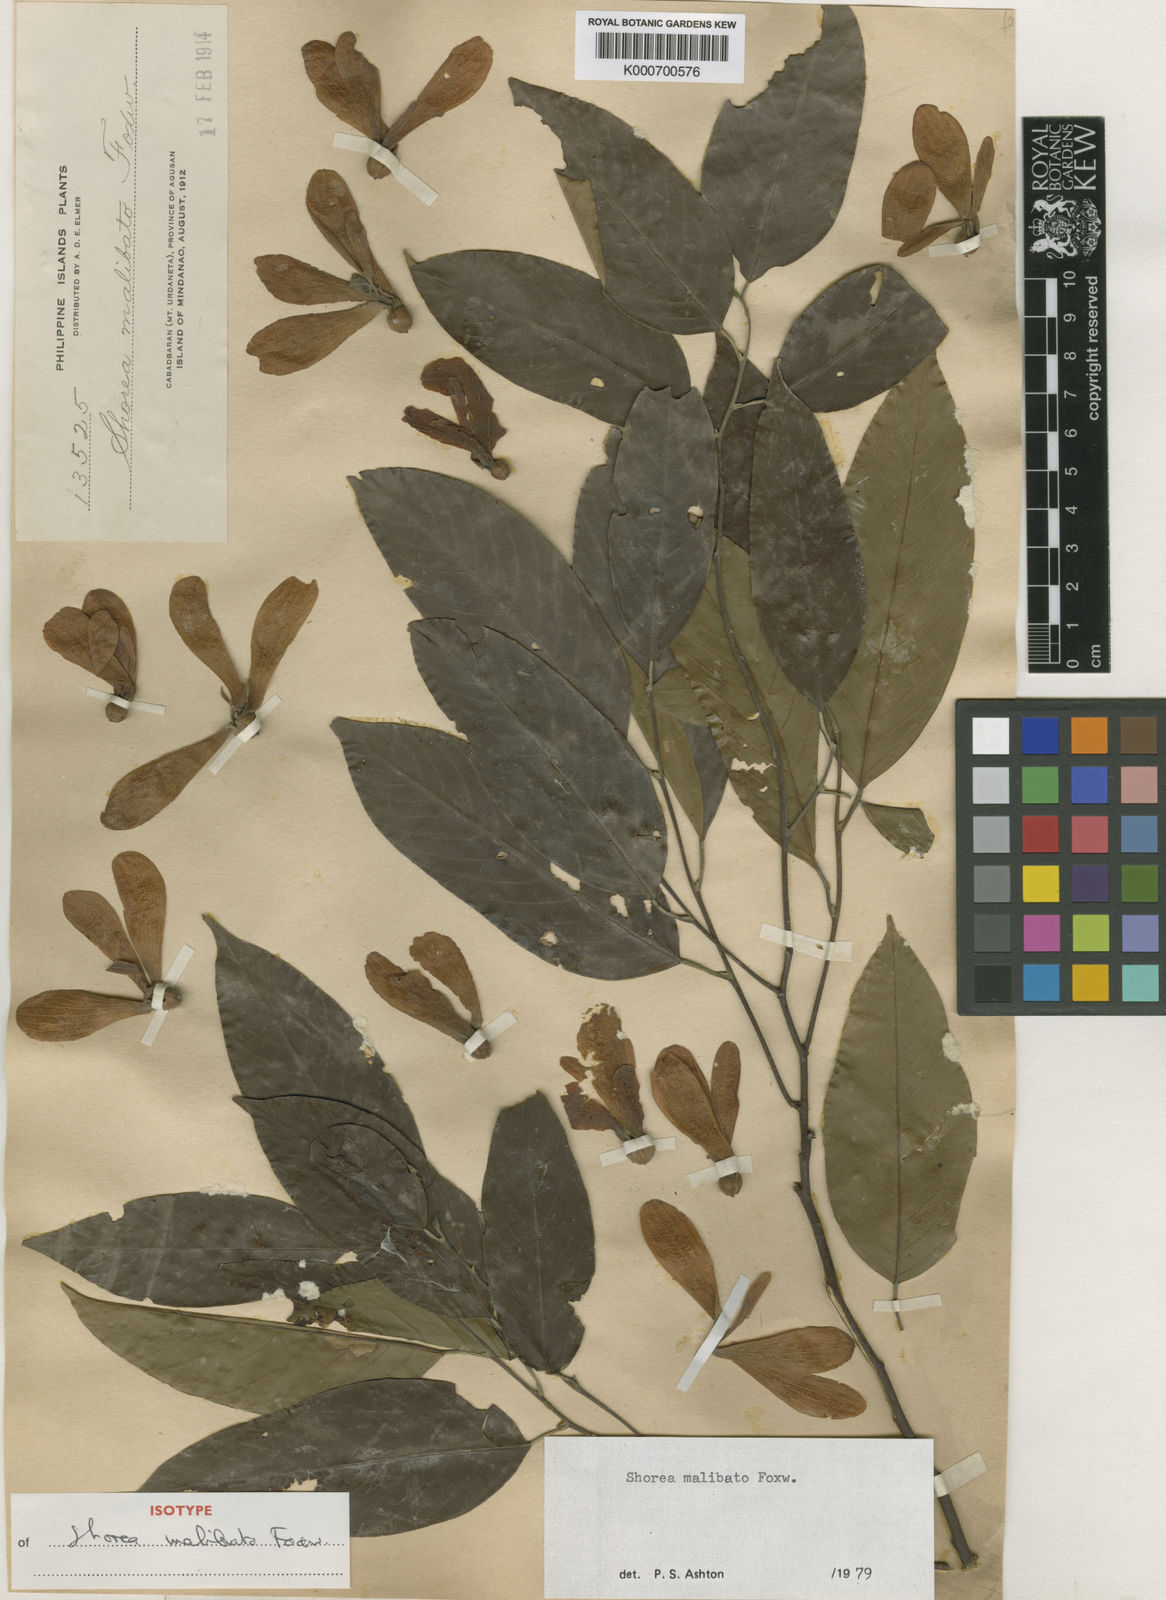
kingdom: Plantae
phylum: Tracheophyta
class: Magnoliopsida
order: Malvales
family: Dipterocarpaceae
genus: Shorea
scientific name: Shorea malibato
